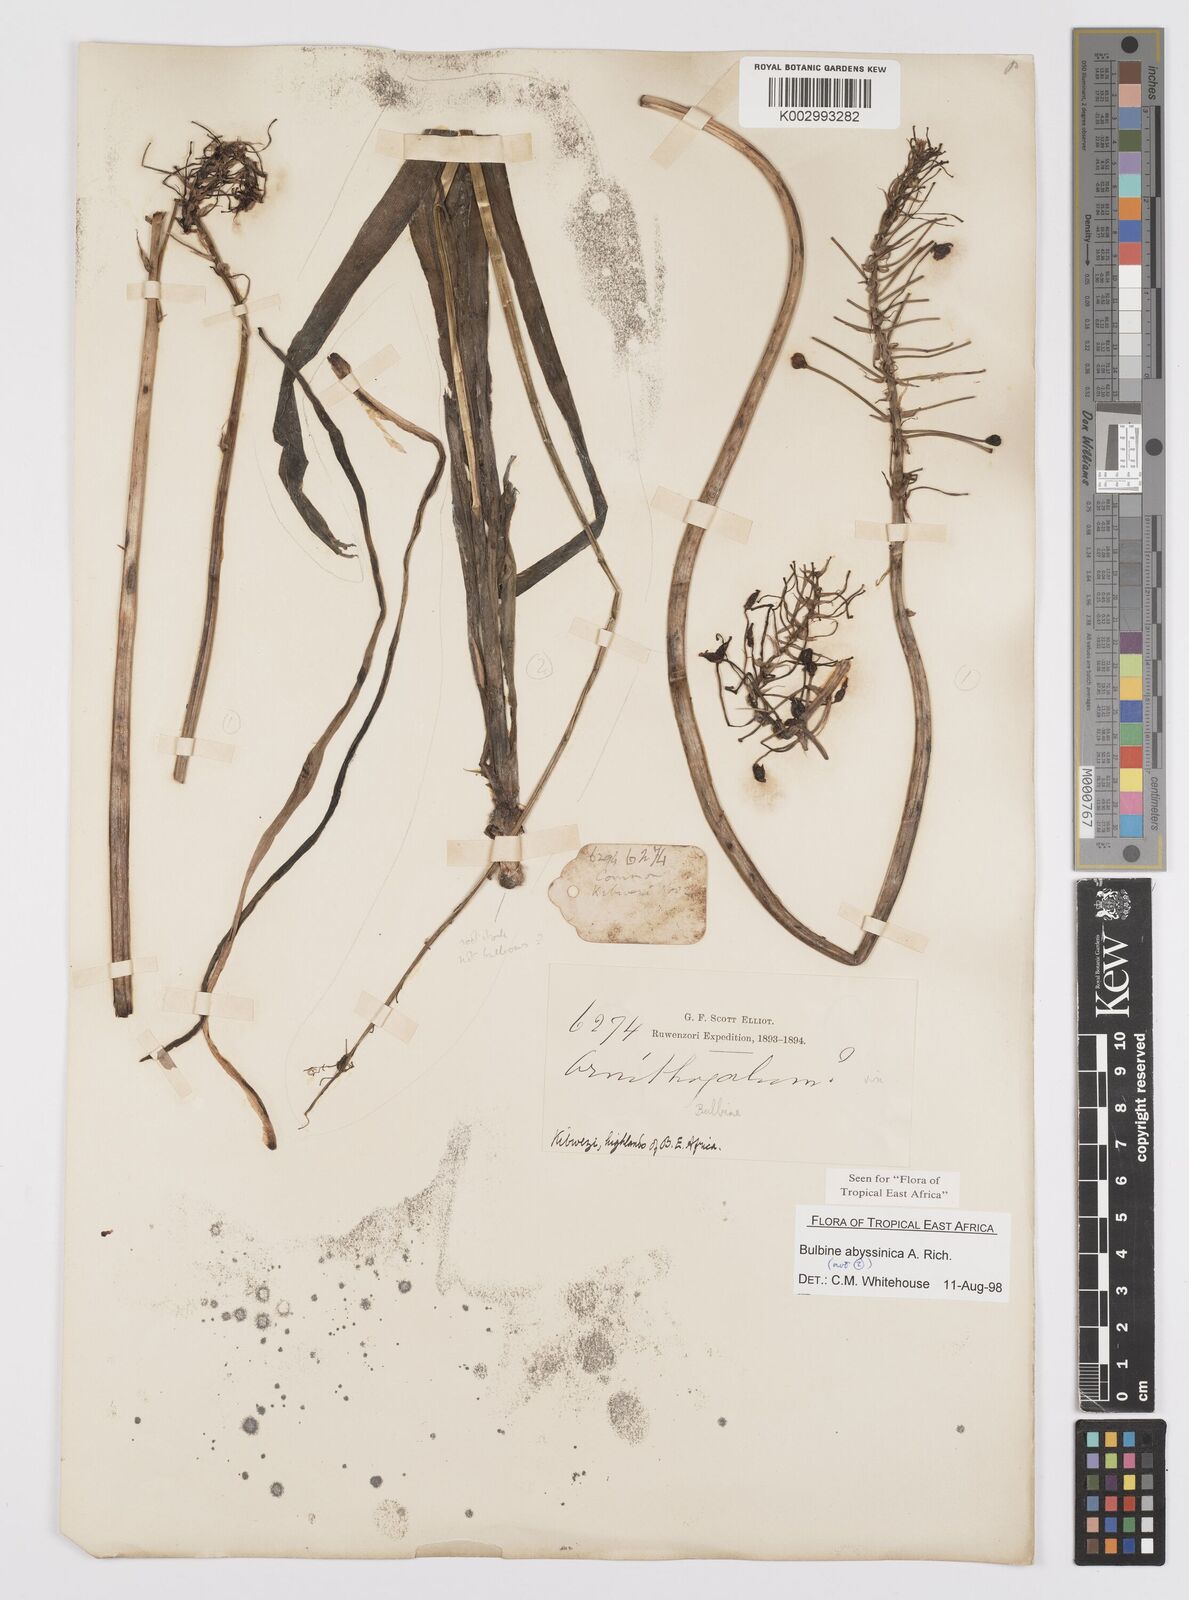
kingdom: Plantae
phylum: Tracheophyta
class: Liliopsida
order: Asparagales
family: Asphodelaceae
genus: Bulbine
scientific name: Bulbine abyssinica
